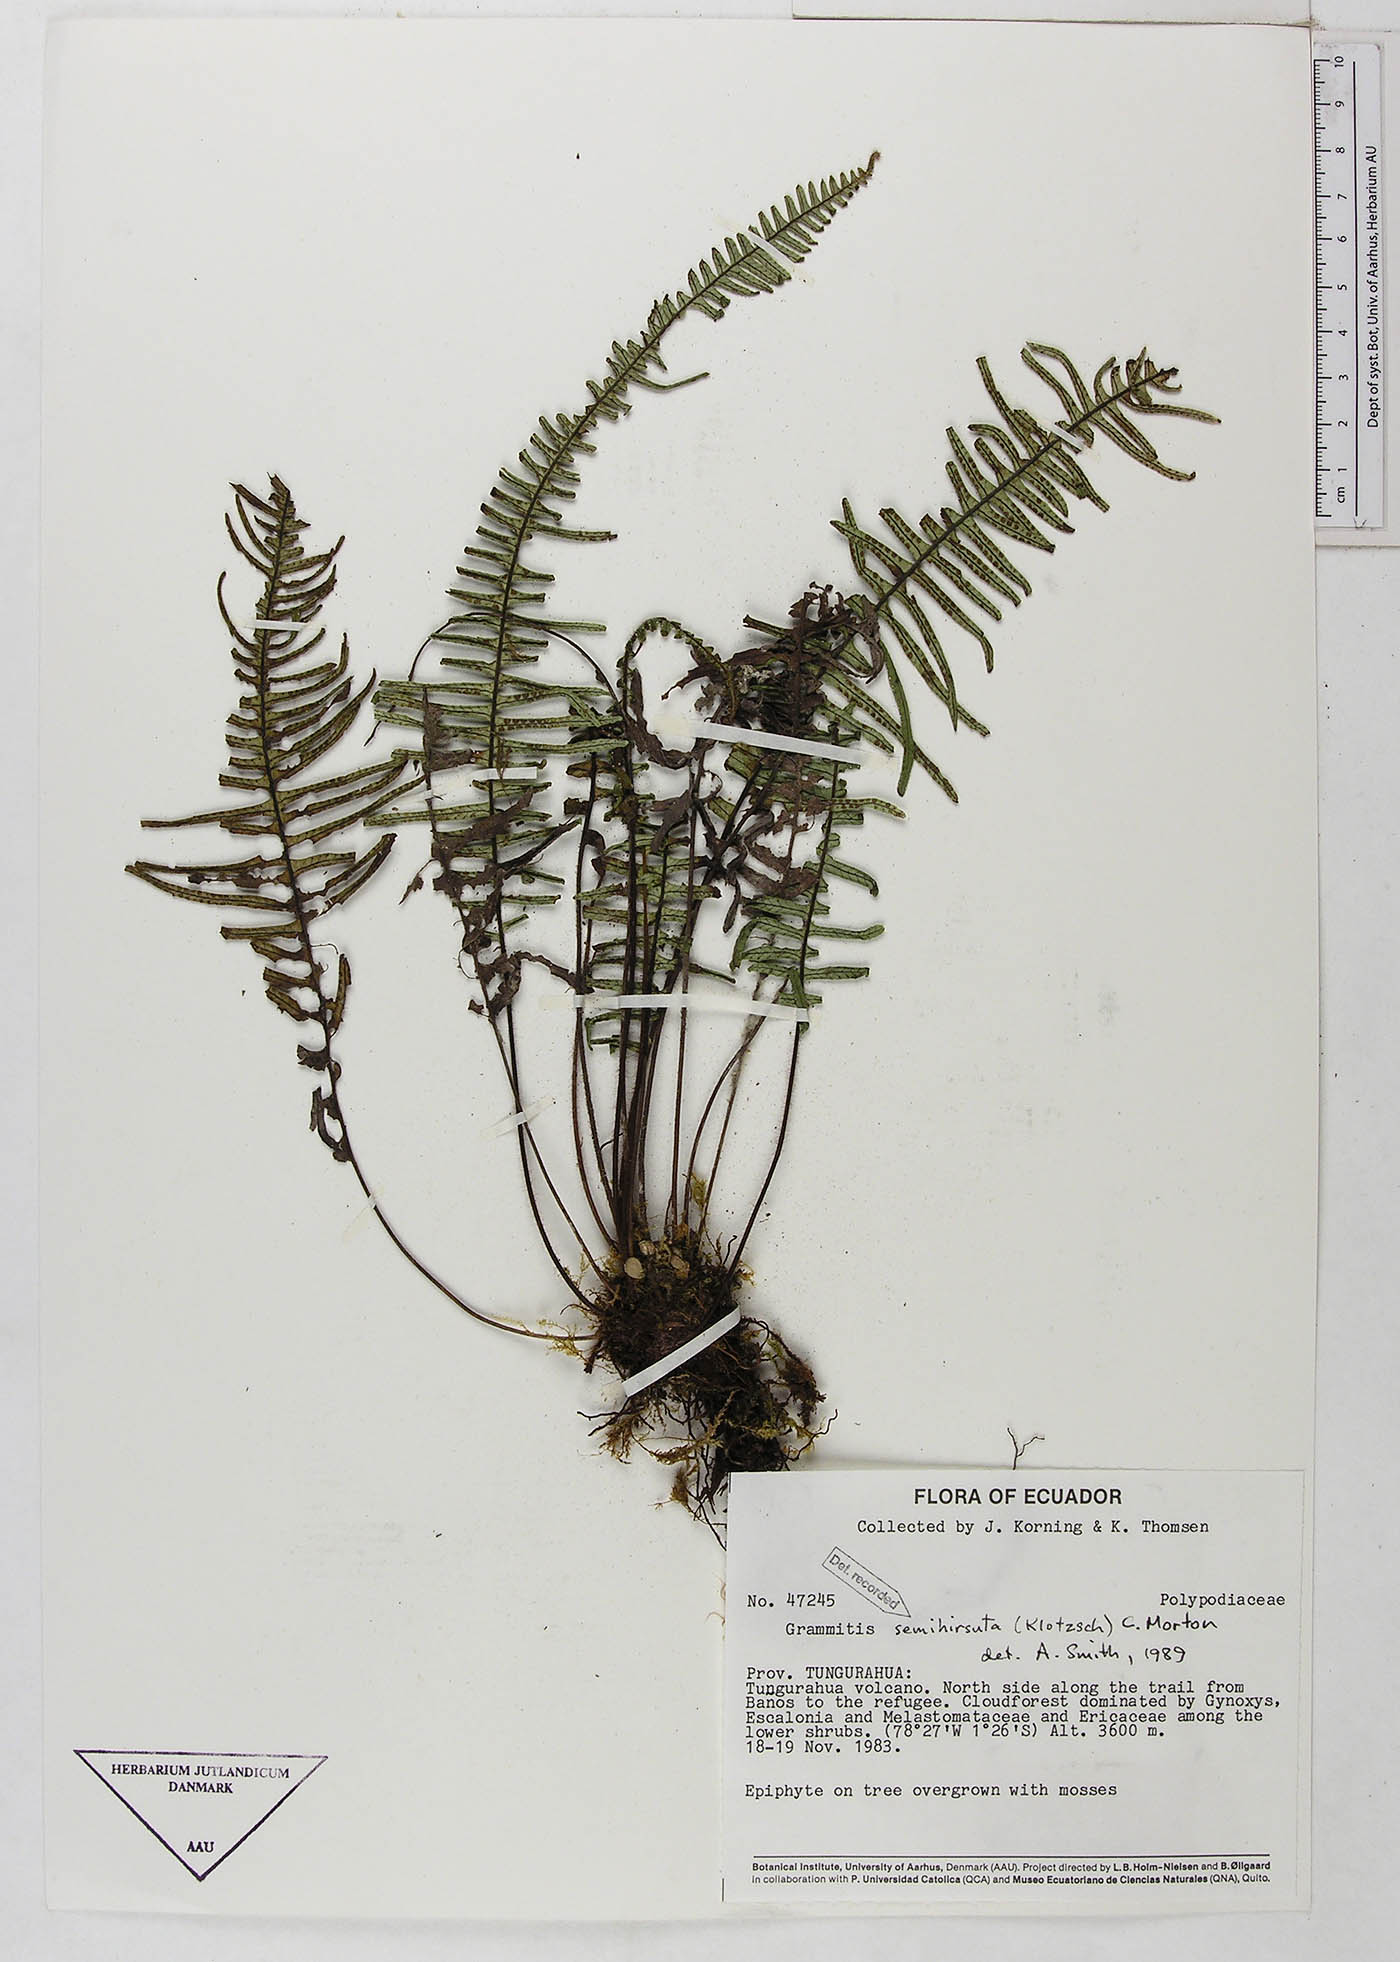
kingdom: Plantae
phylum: Tracheophyta
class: Polypodiopsida
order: Polypodiales
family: Polypodiaceae
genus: Mycopteris
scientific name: Mycopteris semihirsuta
